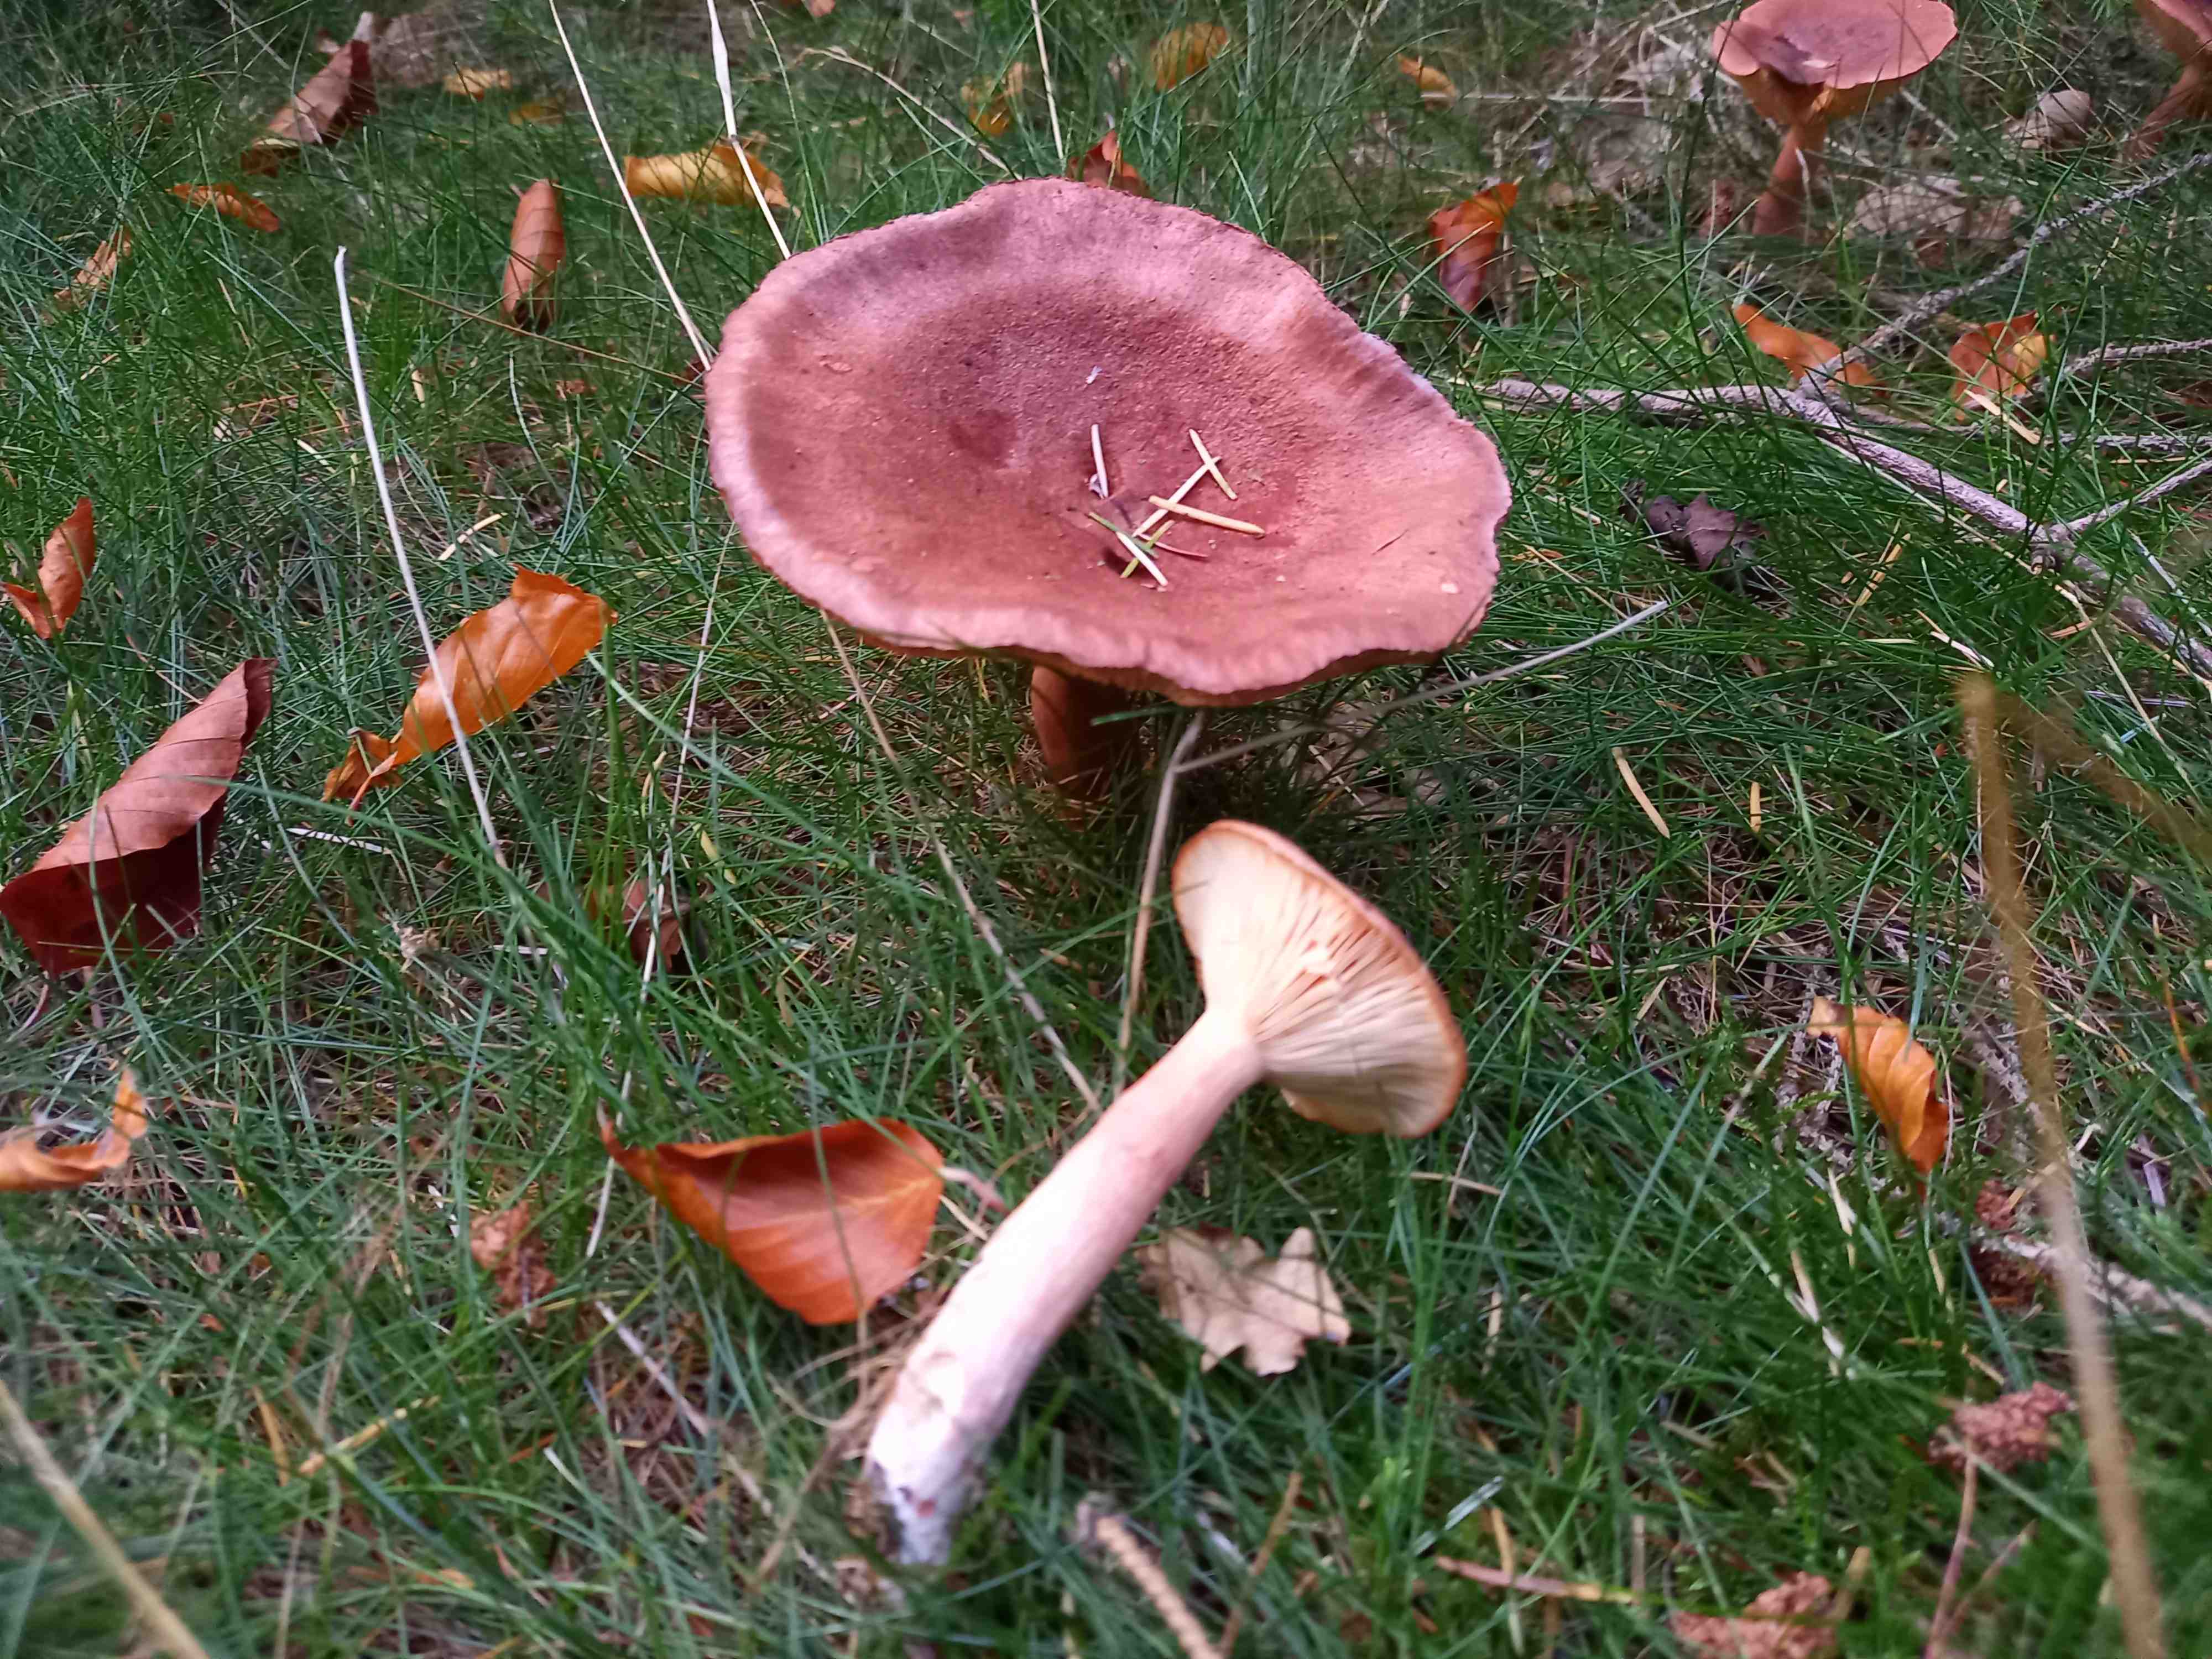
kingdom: Fungi
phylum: Basidiomycota
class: Agaricomycetes
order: Russulales
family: Russulaceae
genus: Lactarius
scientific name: Lactarius rufus
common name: rødbrun mælkehat
